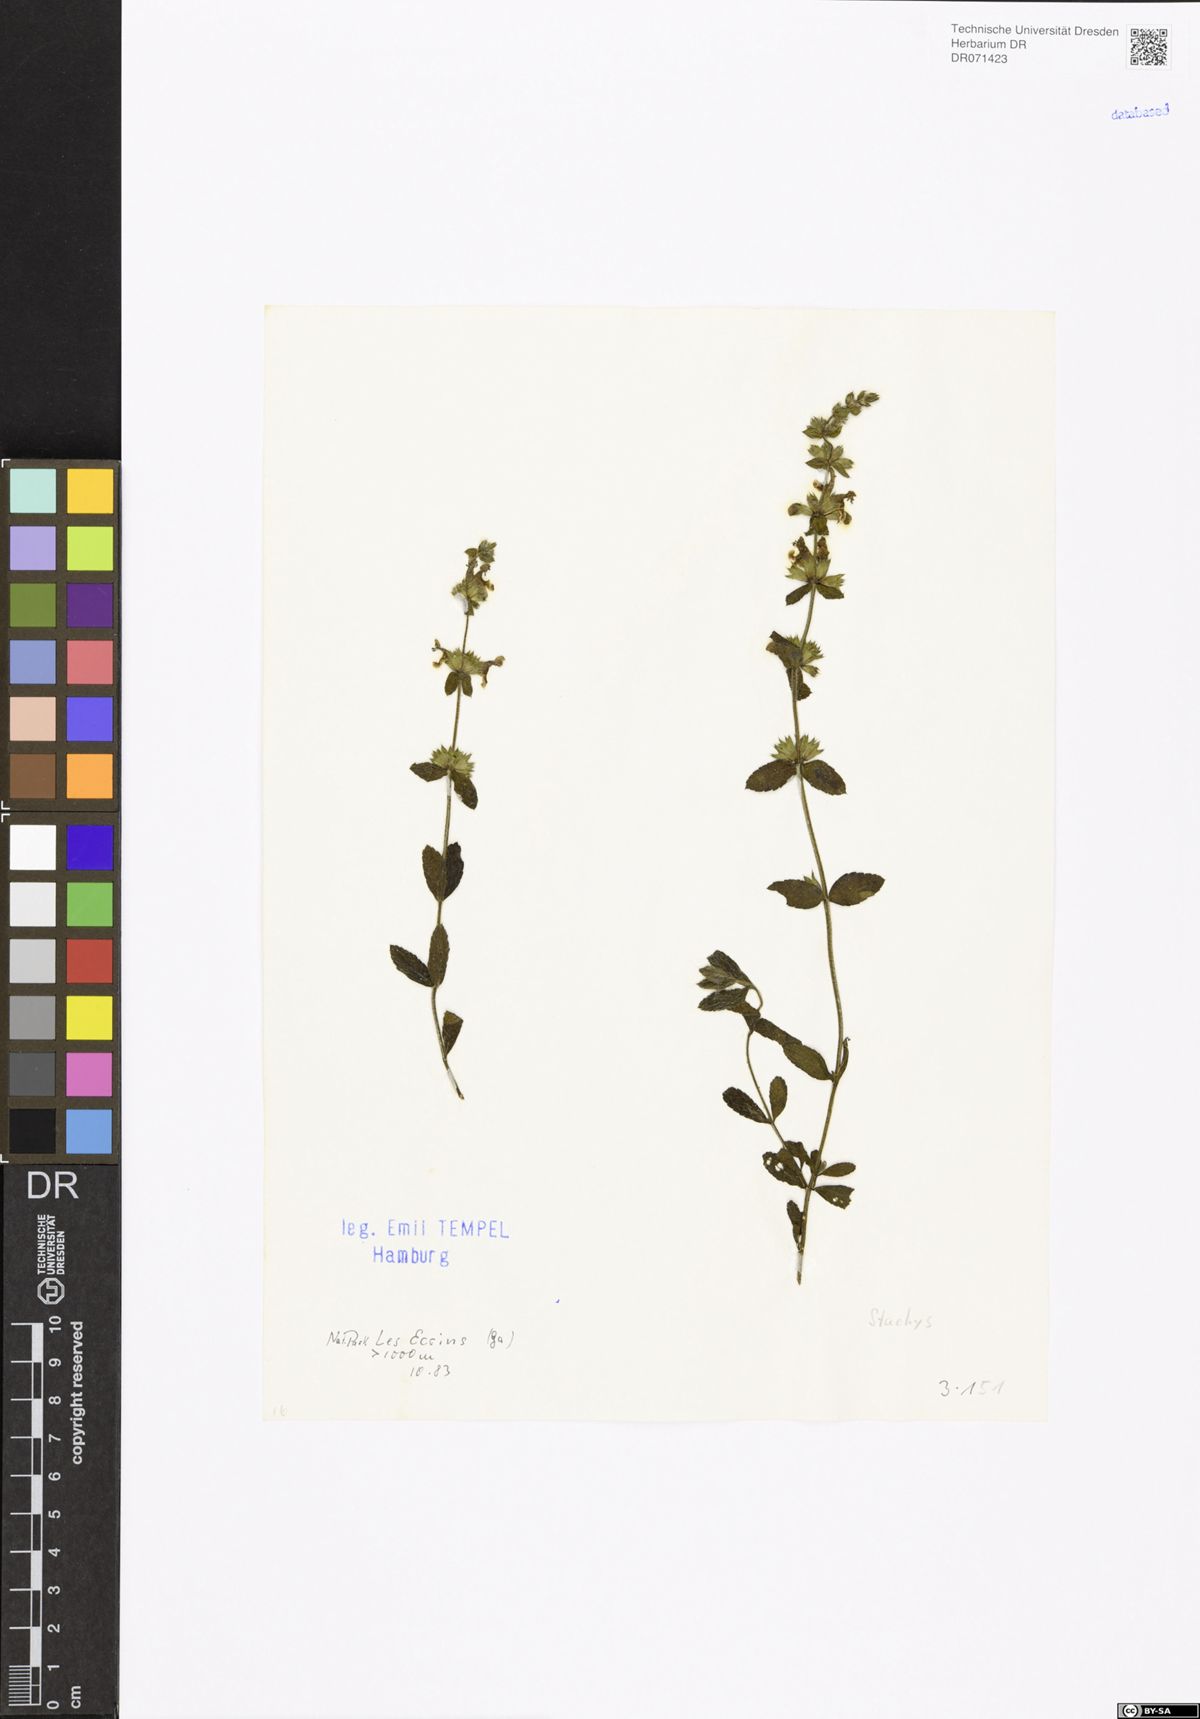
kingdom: Plantae
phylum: Tracheophyta
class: Magnoliopsida
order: Lamiales
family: Lamiaceae
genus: Stachys
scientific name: Stachys
